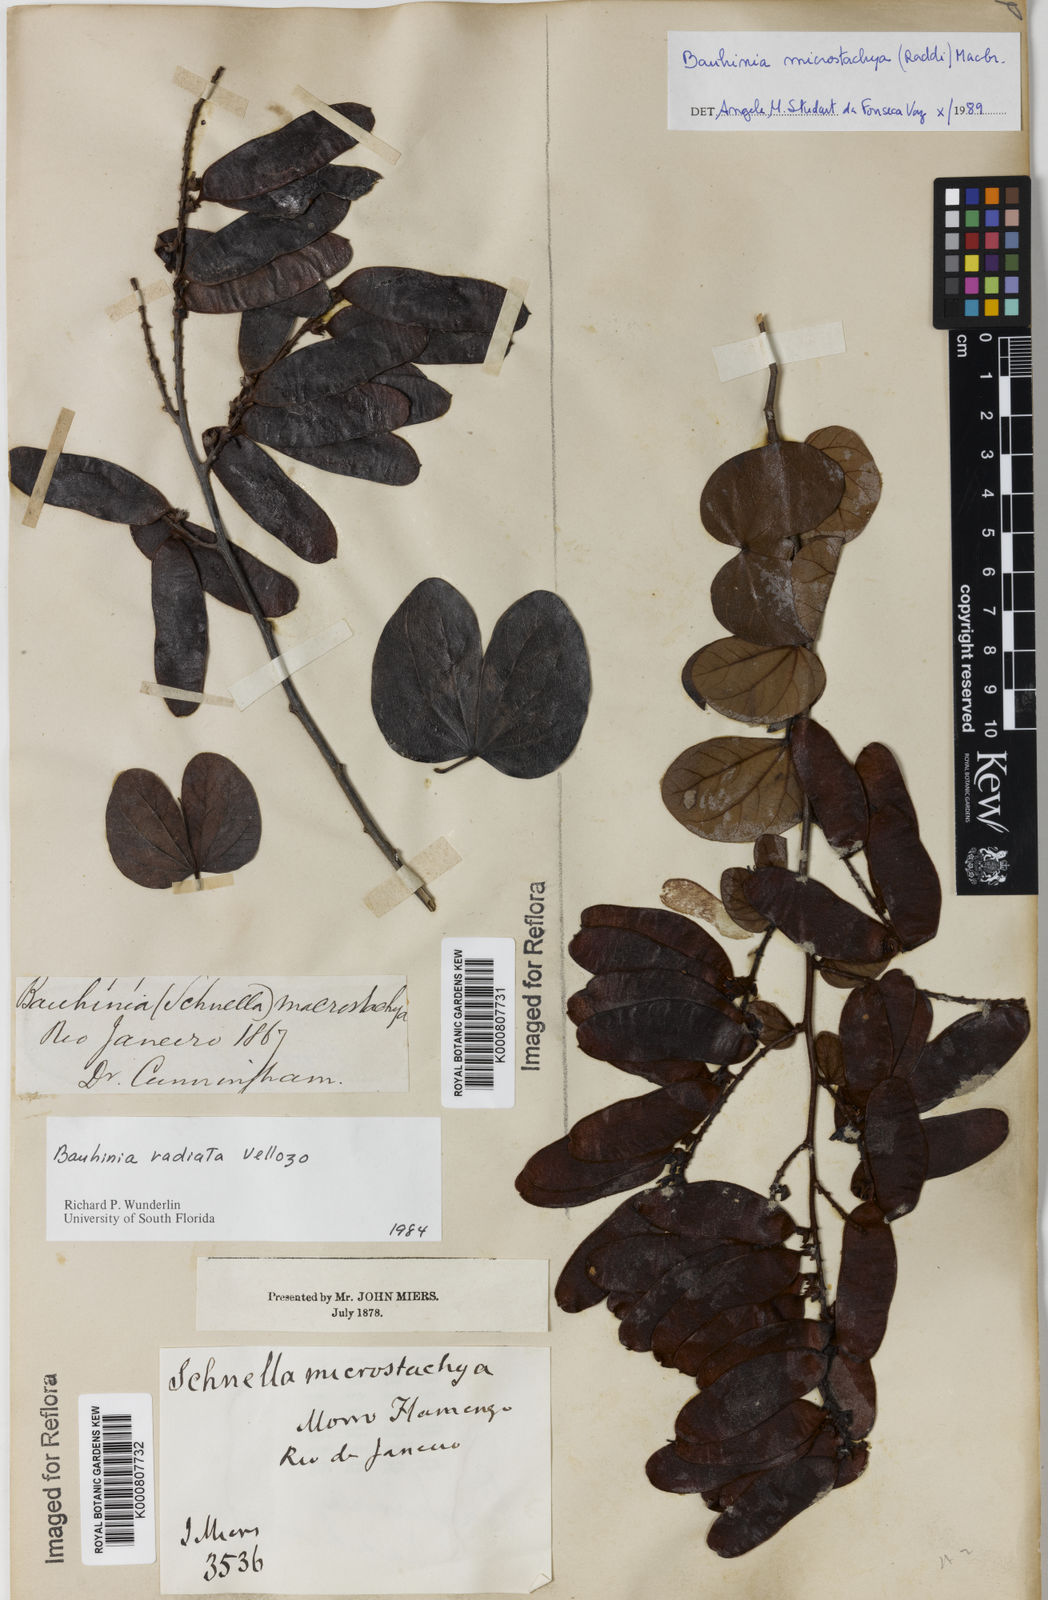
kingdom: Plantae
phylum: Tracheophyta
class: Magnoliopsida
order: Fabales
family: Fabaceae
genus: Schnella
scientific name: Schnella microstachya
